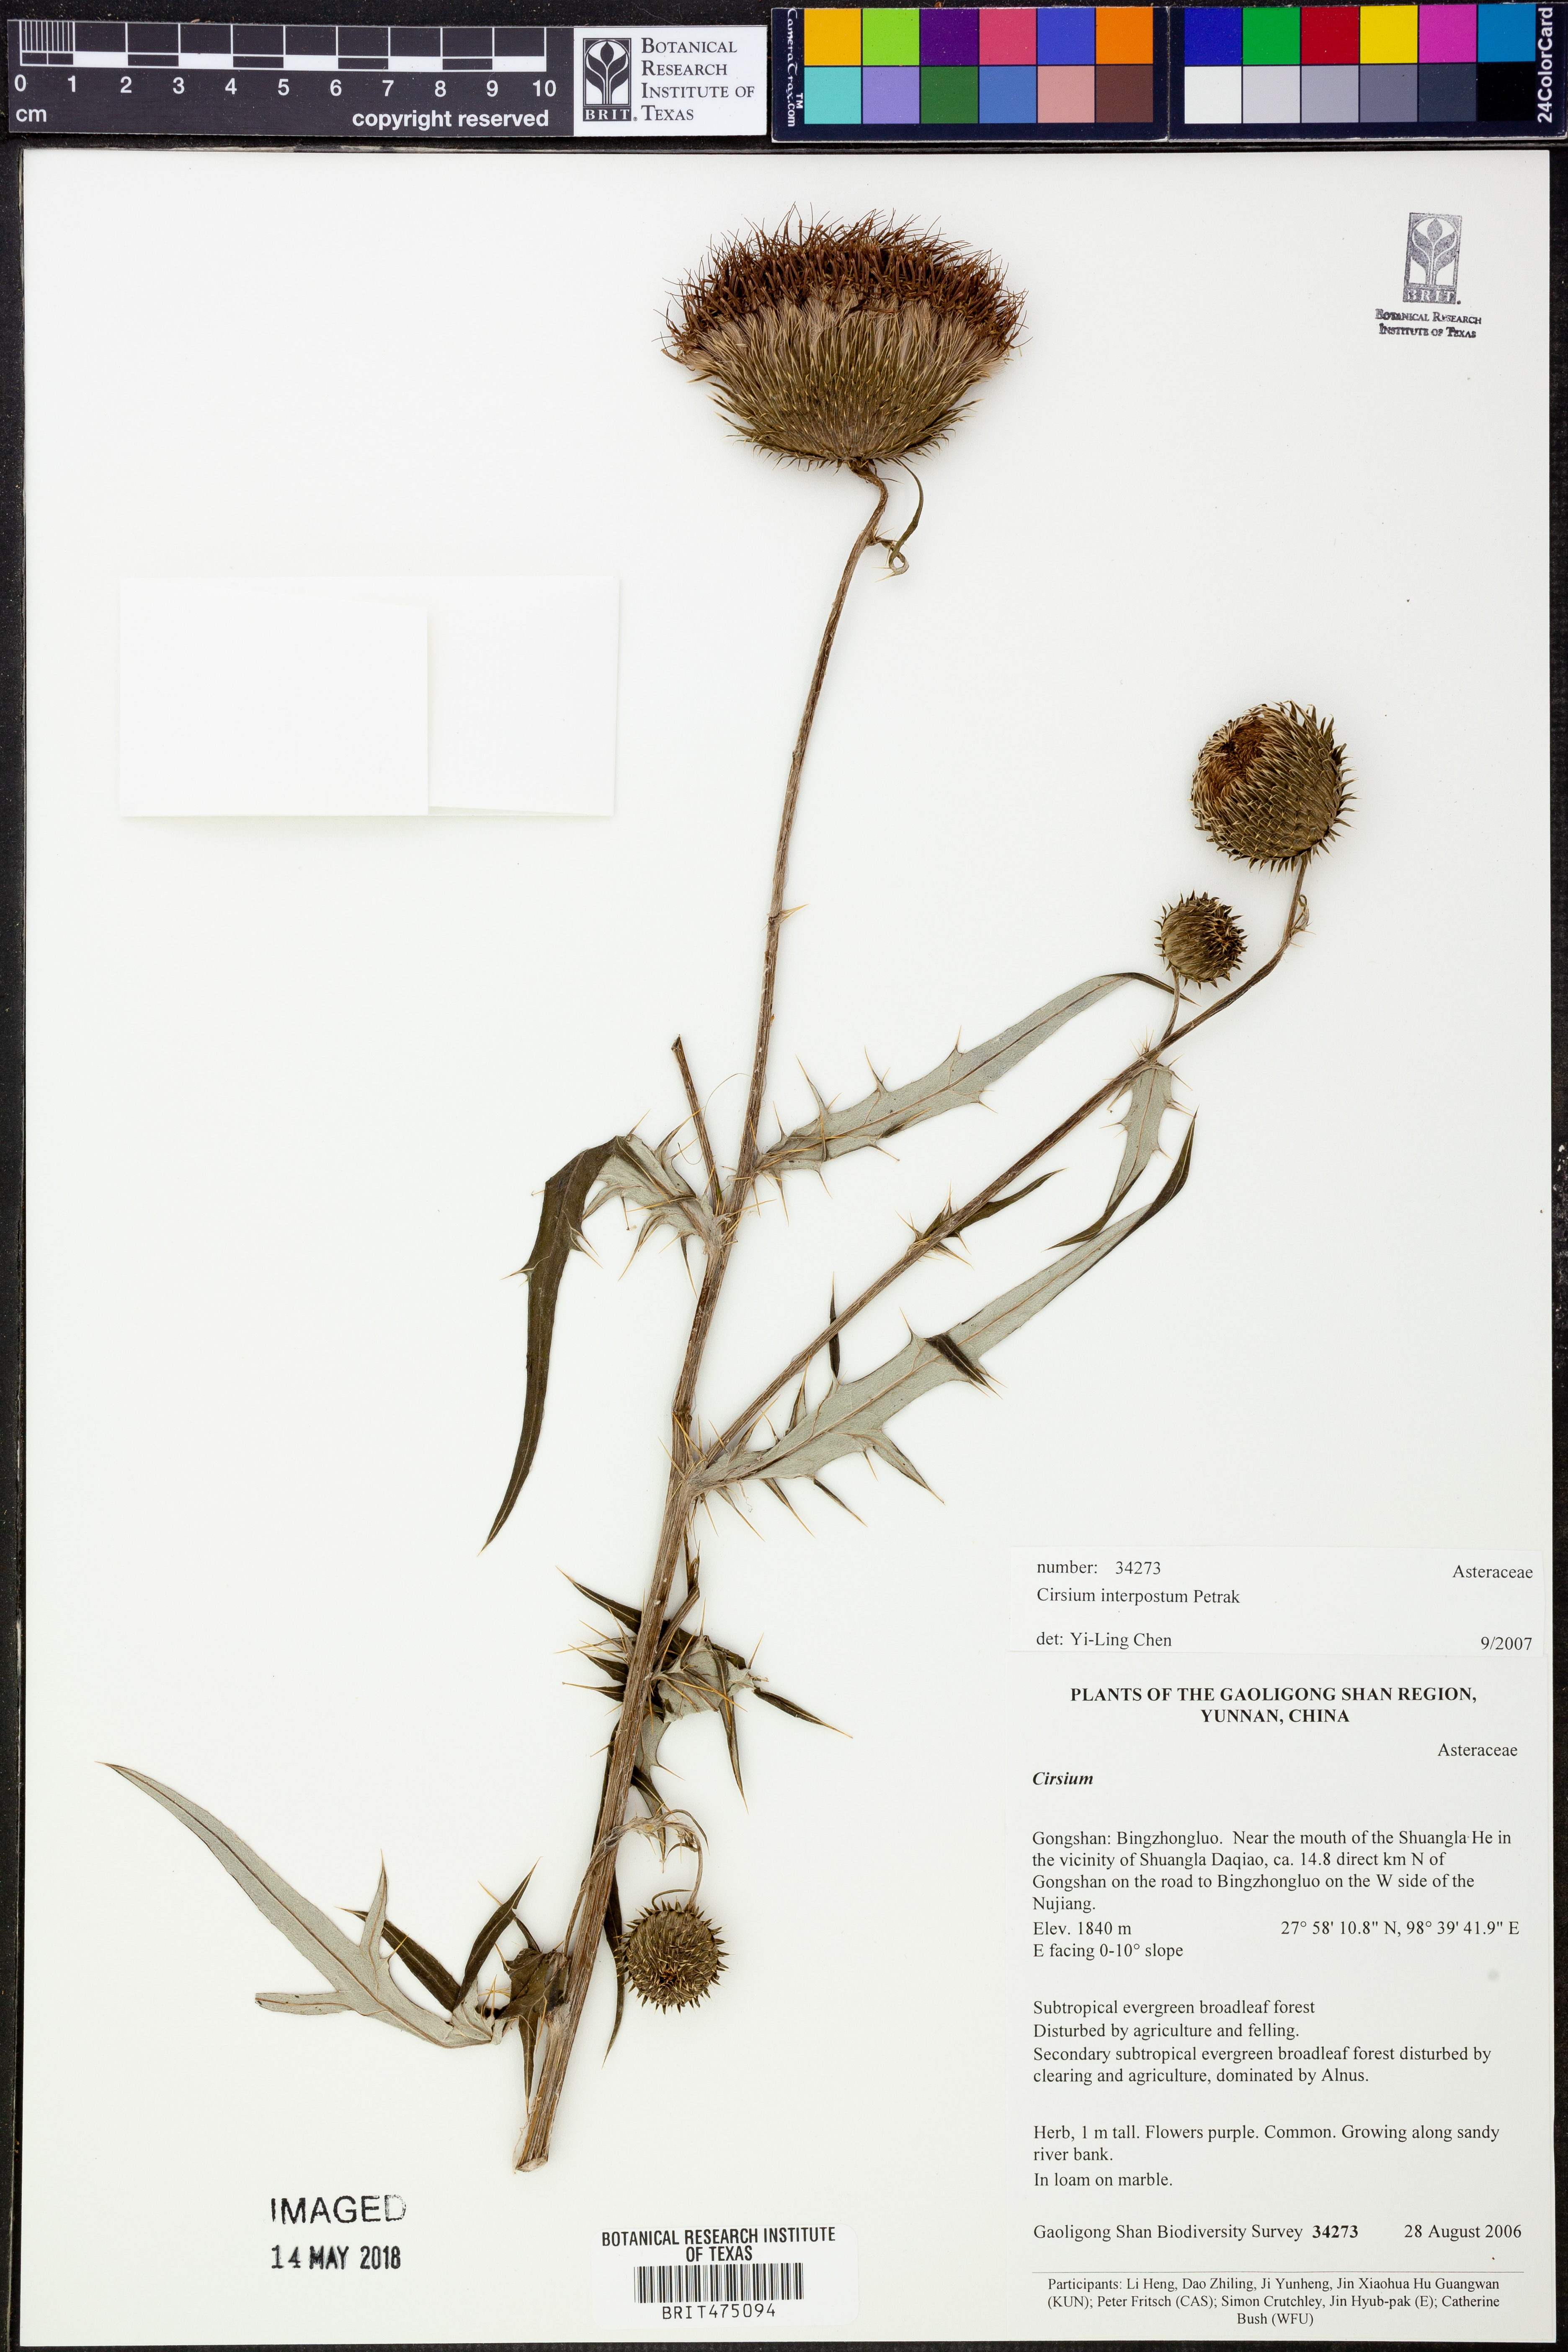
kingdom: Plantae
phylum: Tracheophyta
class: Magnoliopsida
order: Asterales
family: Asteraceae
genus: Cirsium
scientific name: Cirsium lipskyi
